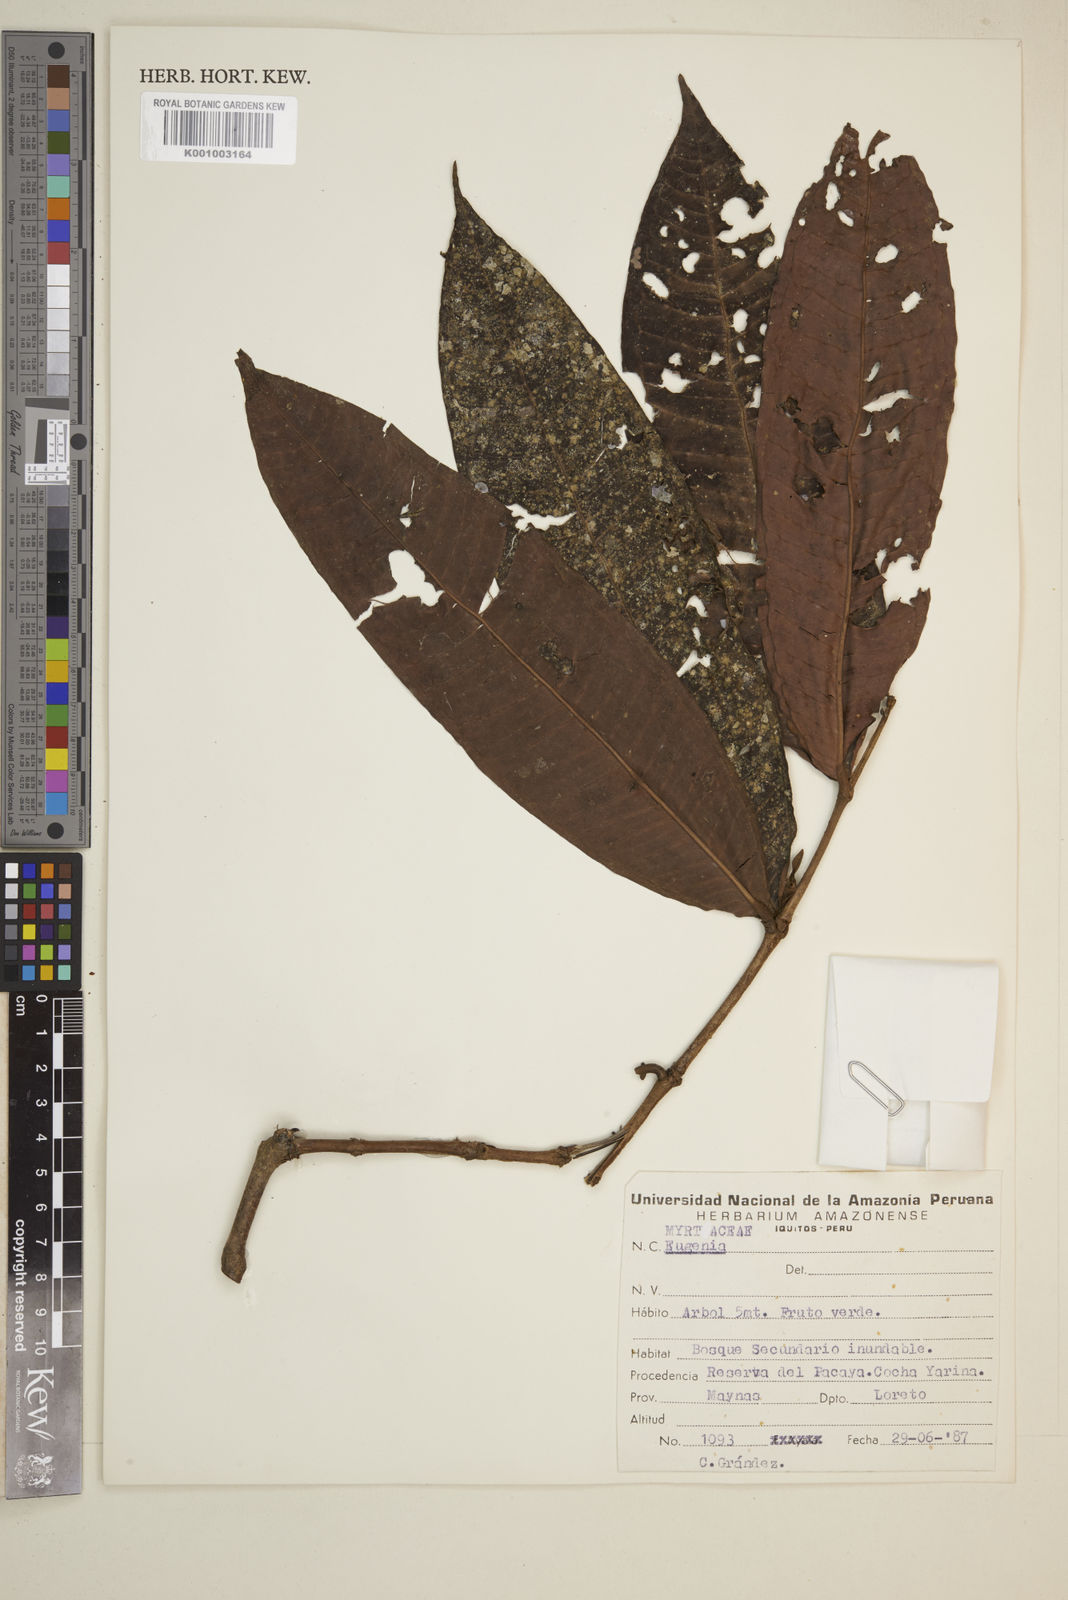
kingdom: Plantae
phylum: Tracheophyta
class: Magnoliopsida
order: Myrtales
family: Myrtaceae
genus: Eugenia
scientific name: Eugenia
